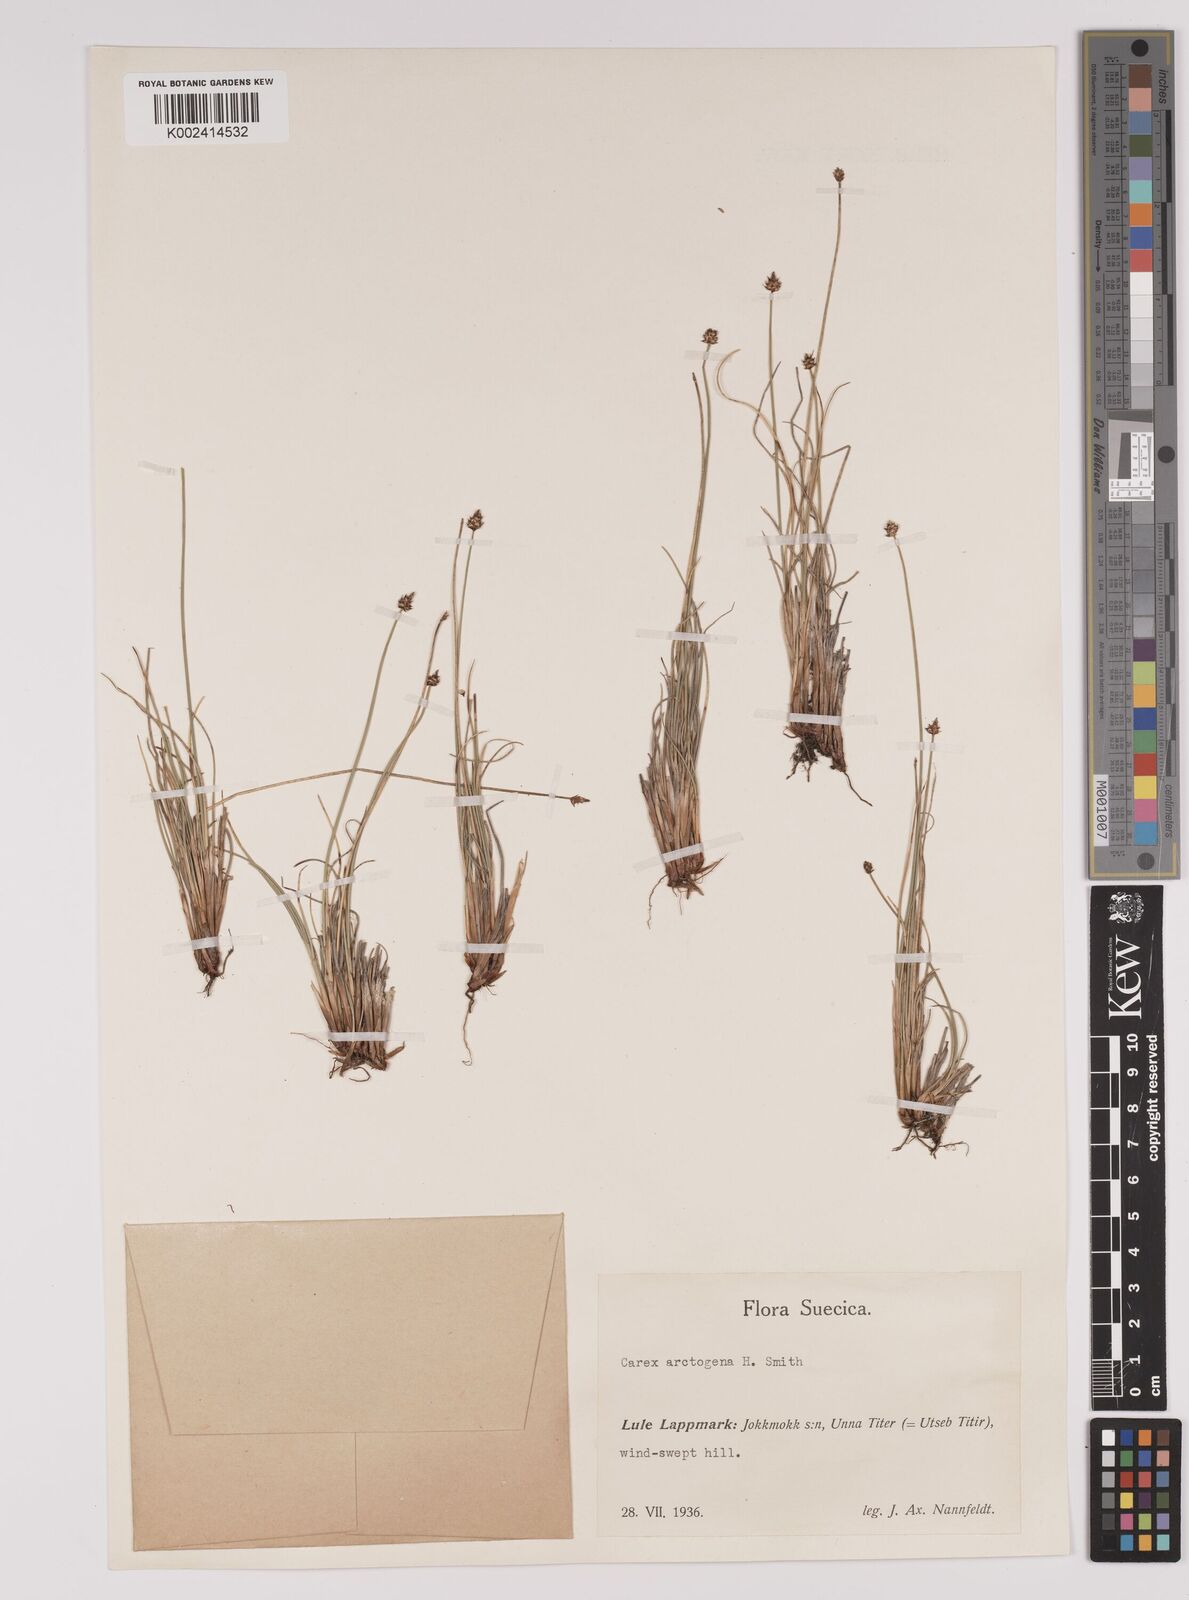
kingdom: Plantae
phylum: Tracheophyta
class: Liliopsida
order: Poales
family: Cyperaceae
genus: Carex
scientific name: Carex arctogena
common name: Black sedge
